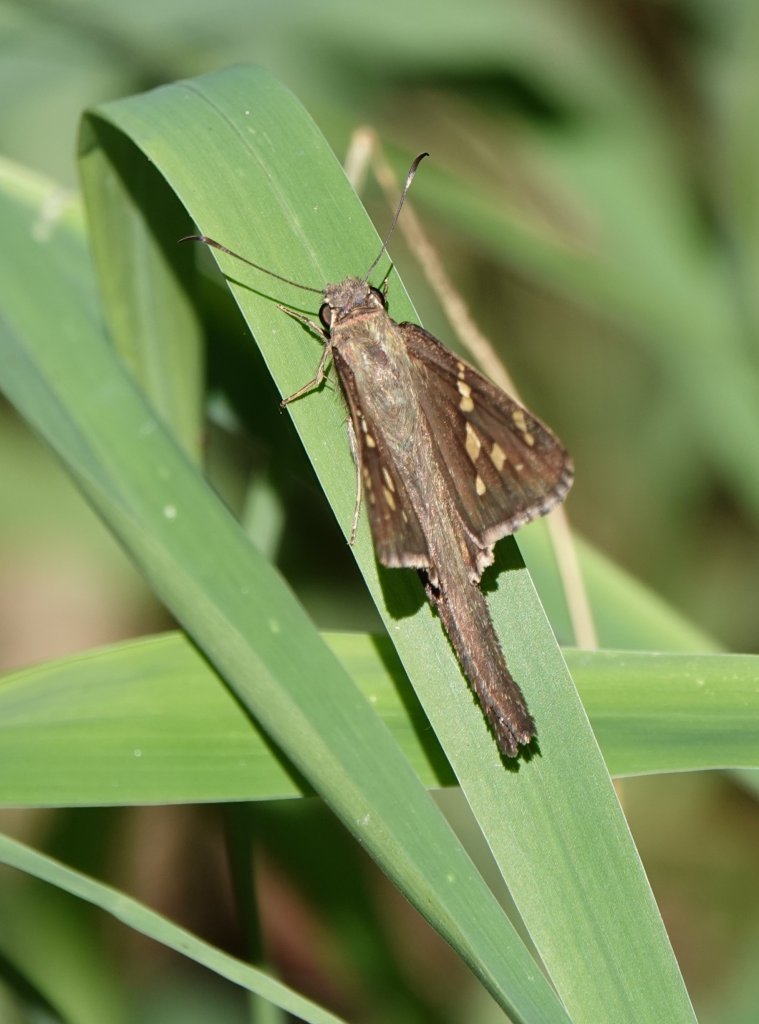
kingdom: Animalia
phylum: Arthropoda
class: Insecta
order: Lepidoptera
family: Hesperiidae
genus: Urbanus
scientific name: Urbanus dorantes
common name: Dorantes Longtail
